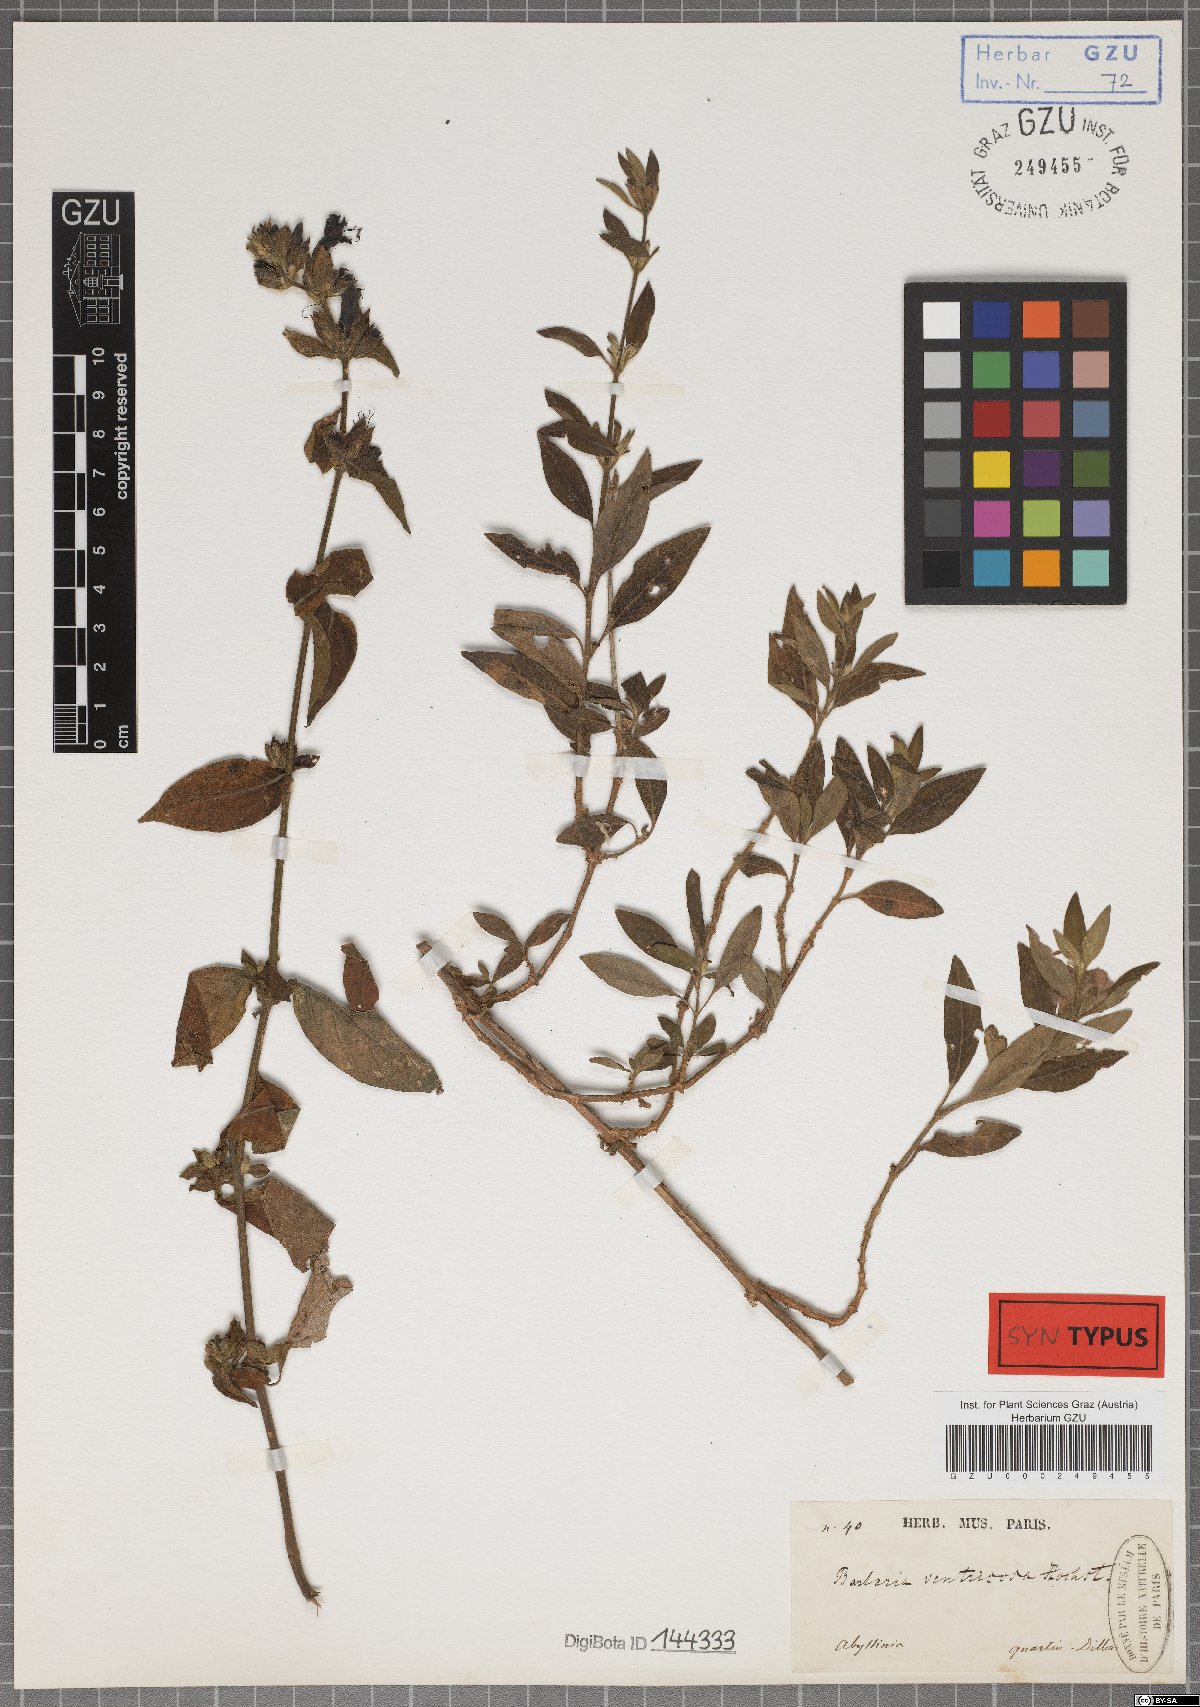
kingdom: Plantae
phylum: Tracheophyta
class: Magnoliopsida
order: Lamiales
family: Acanthaceae
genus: Barleria
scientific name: Barleria ventricosa
